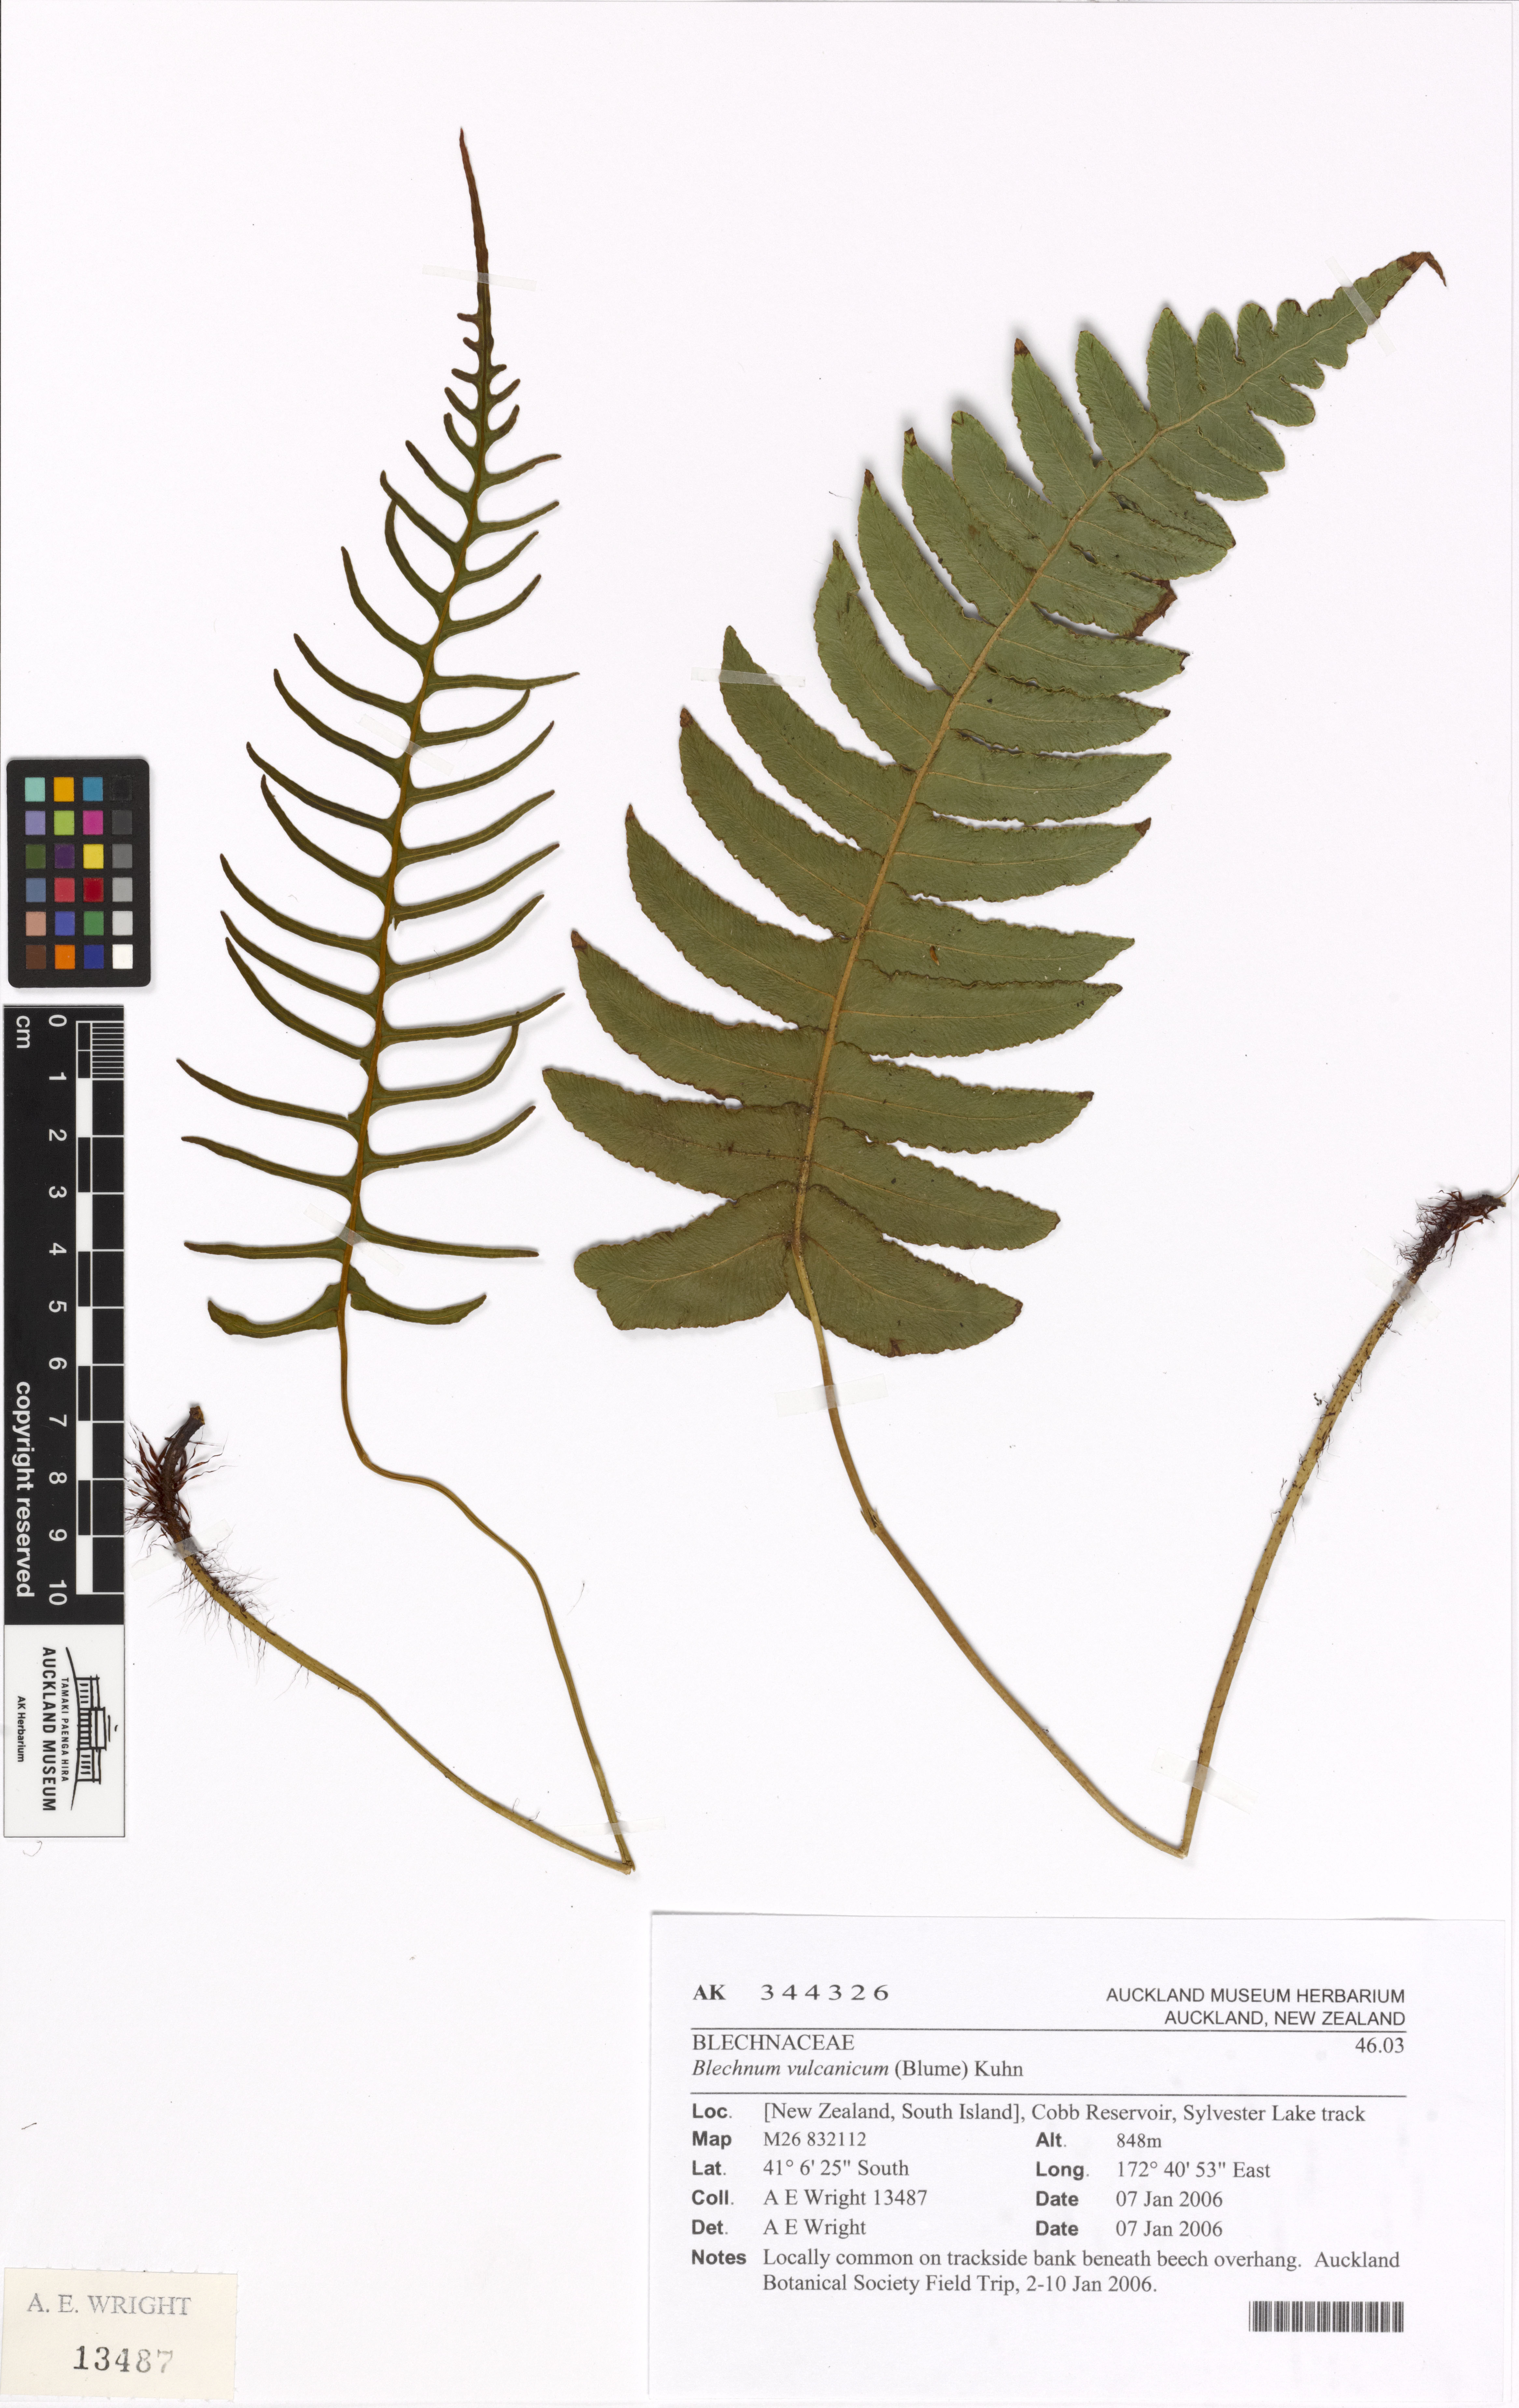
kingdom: Plantae
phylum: Tracheophyta
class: Polypodiopsida
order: Polypodiales
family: Blechnaceae
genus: Cranfillia
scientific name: Cranfillia vulcanica
